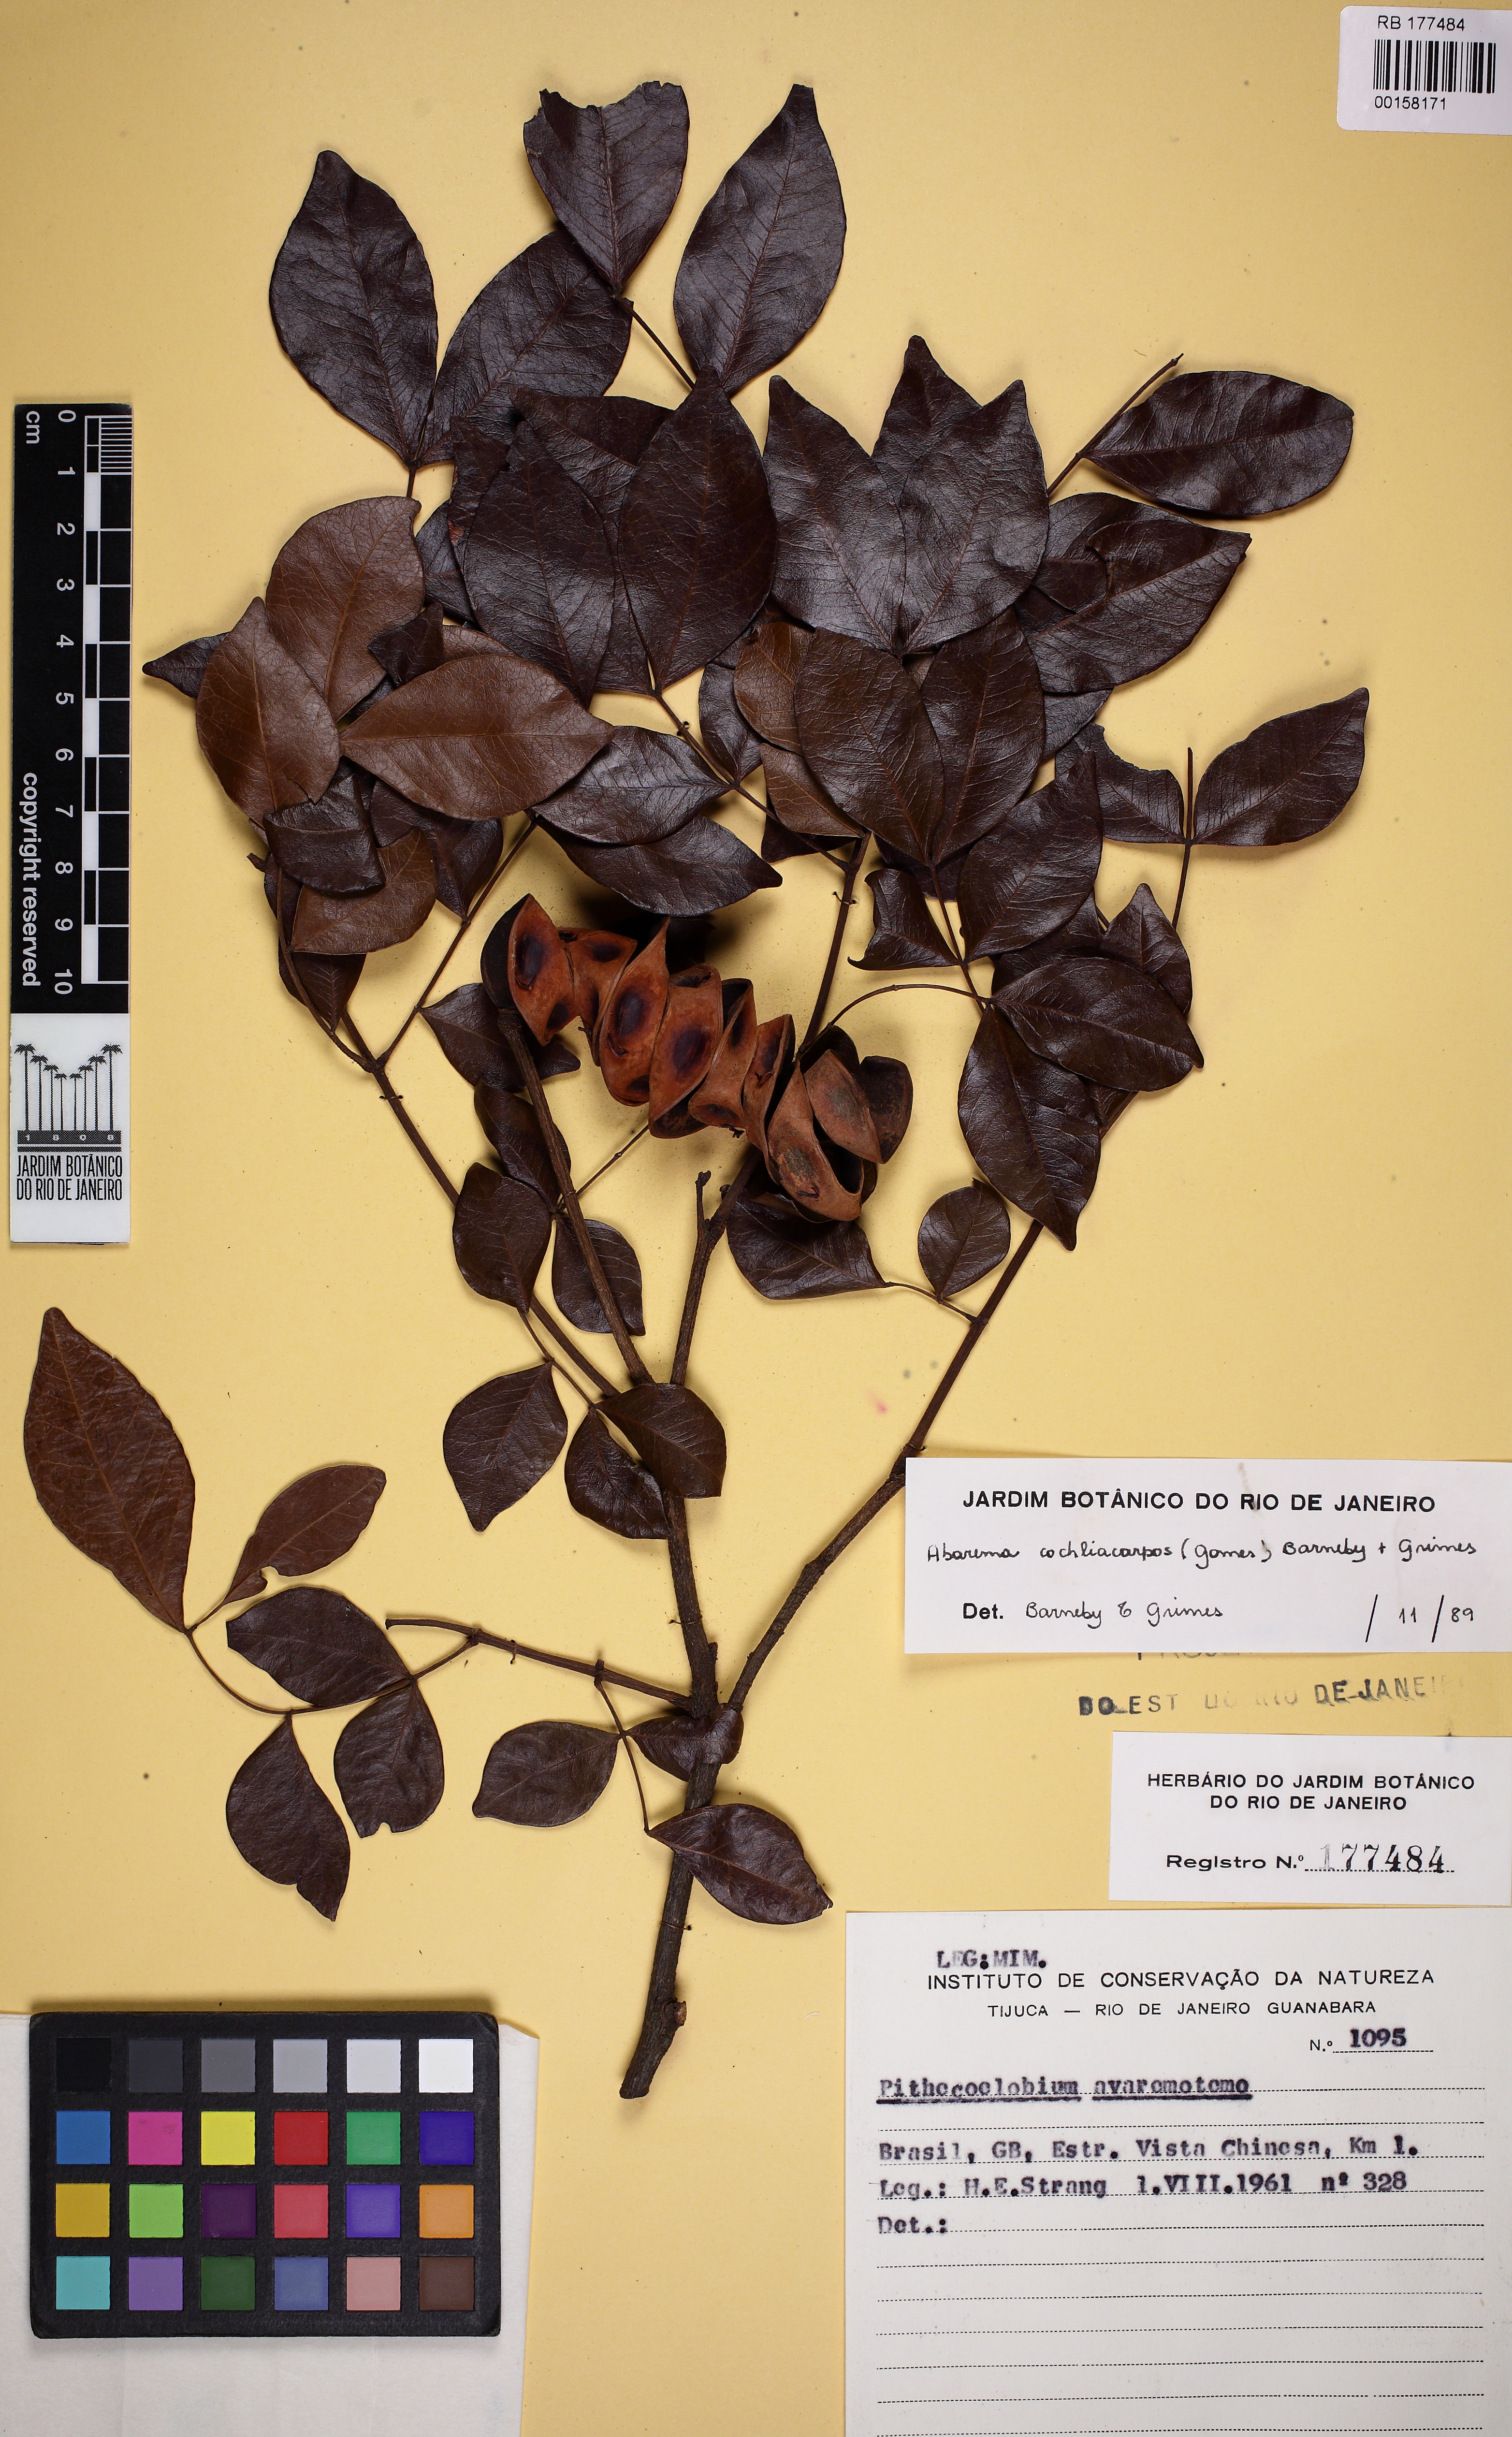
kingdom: Plantae
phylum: Tracheophyta
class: Magnoliopsida
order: Fabales
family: Fabaceae
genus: Abarema
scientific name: Abarema cochliacarpos
